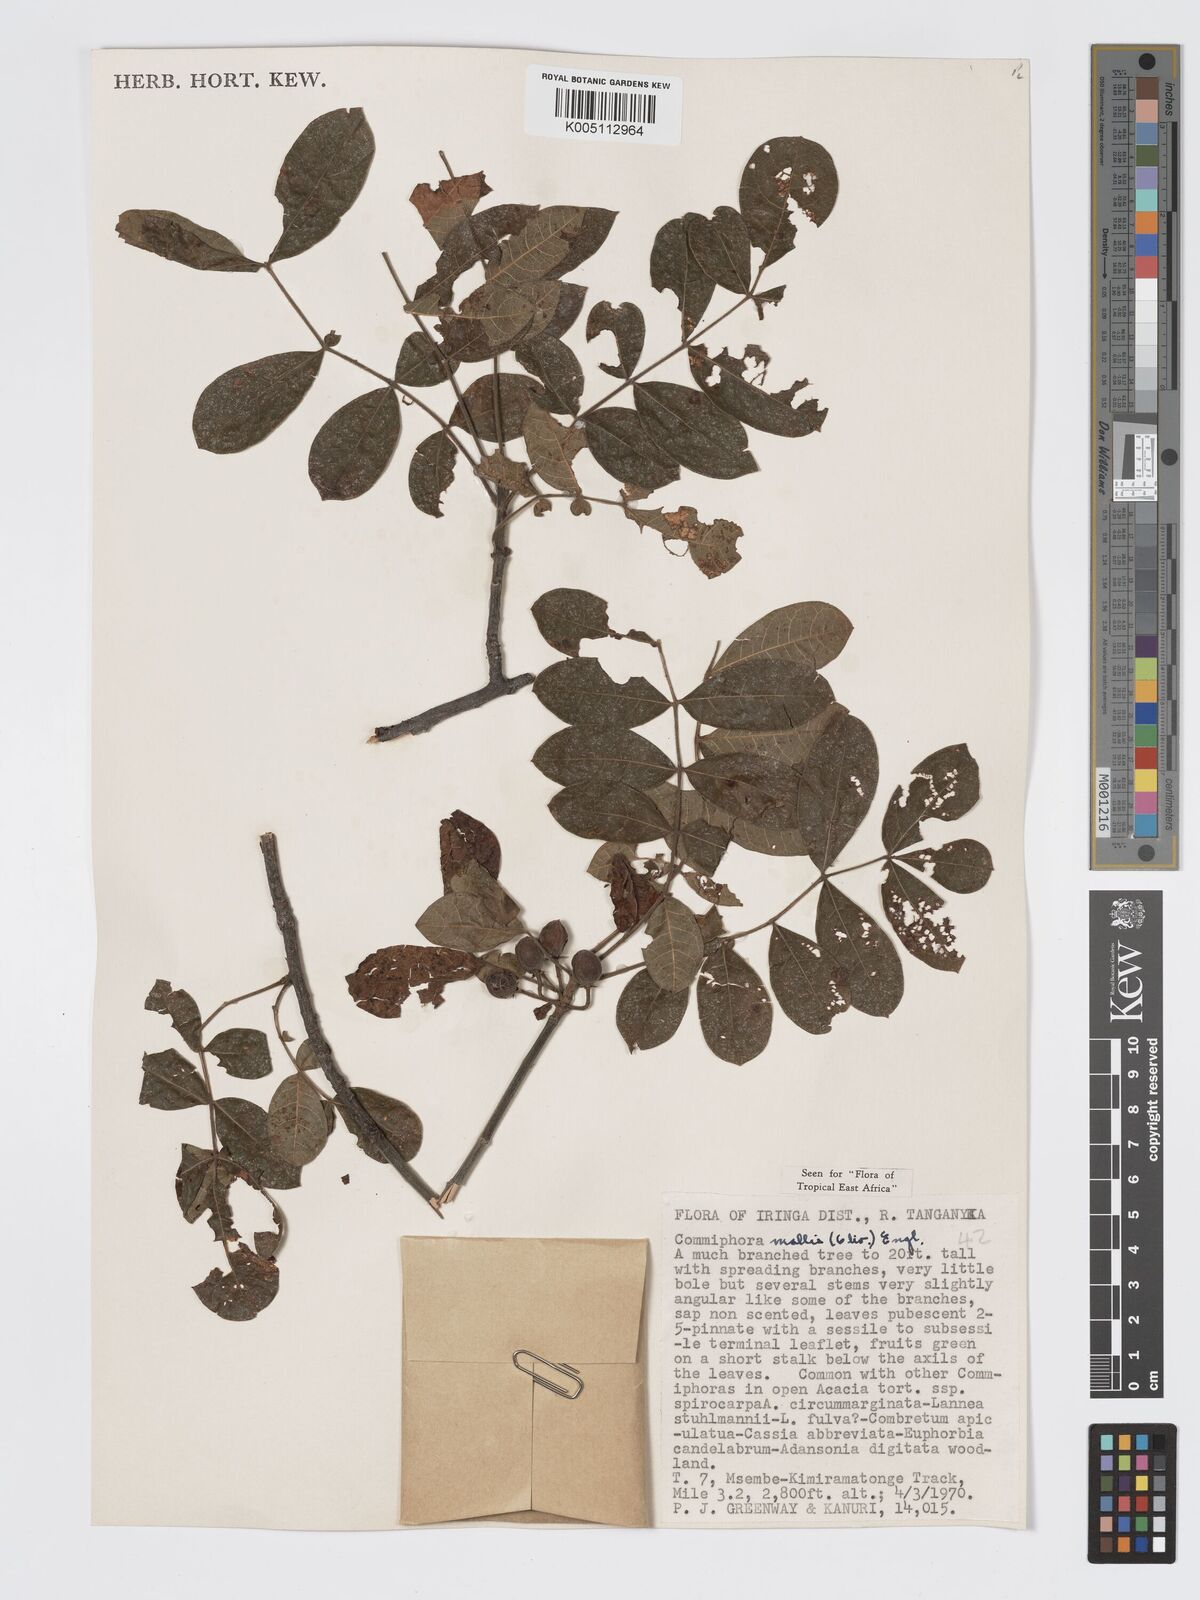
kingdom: Plantae
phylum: Tracheophyta
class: Magnoliopsida
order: Sapindales
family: Burseraceae
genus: Commiphora
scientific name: Commiphora
